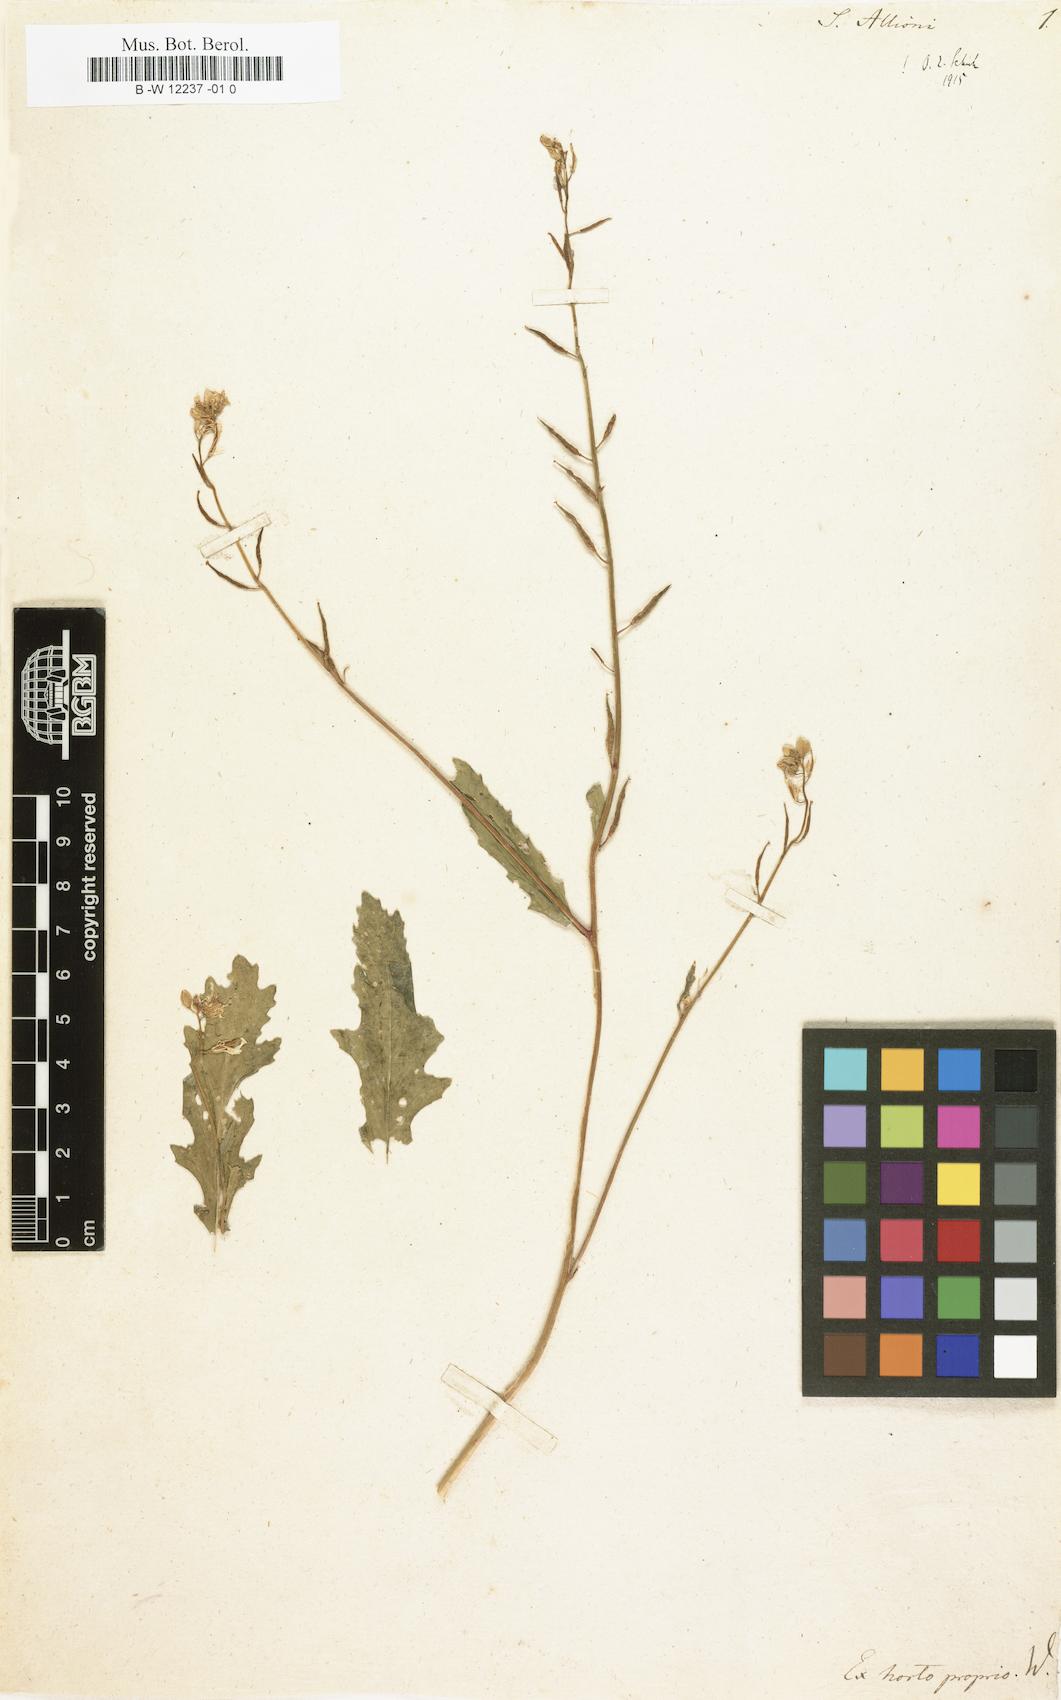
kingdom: Plantae
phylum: Tracheophyta
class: Magnoliopsida
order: Brassicales
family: Brassicaceae
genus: Sinapis
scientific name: Sinapis arvensis
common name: Charlock
